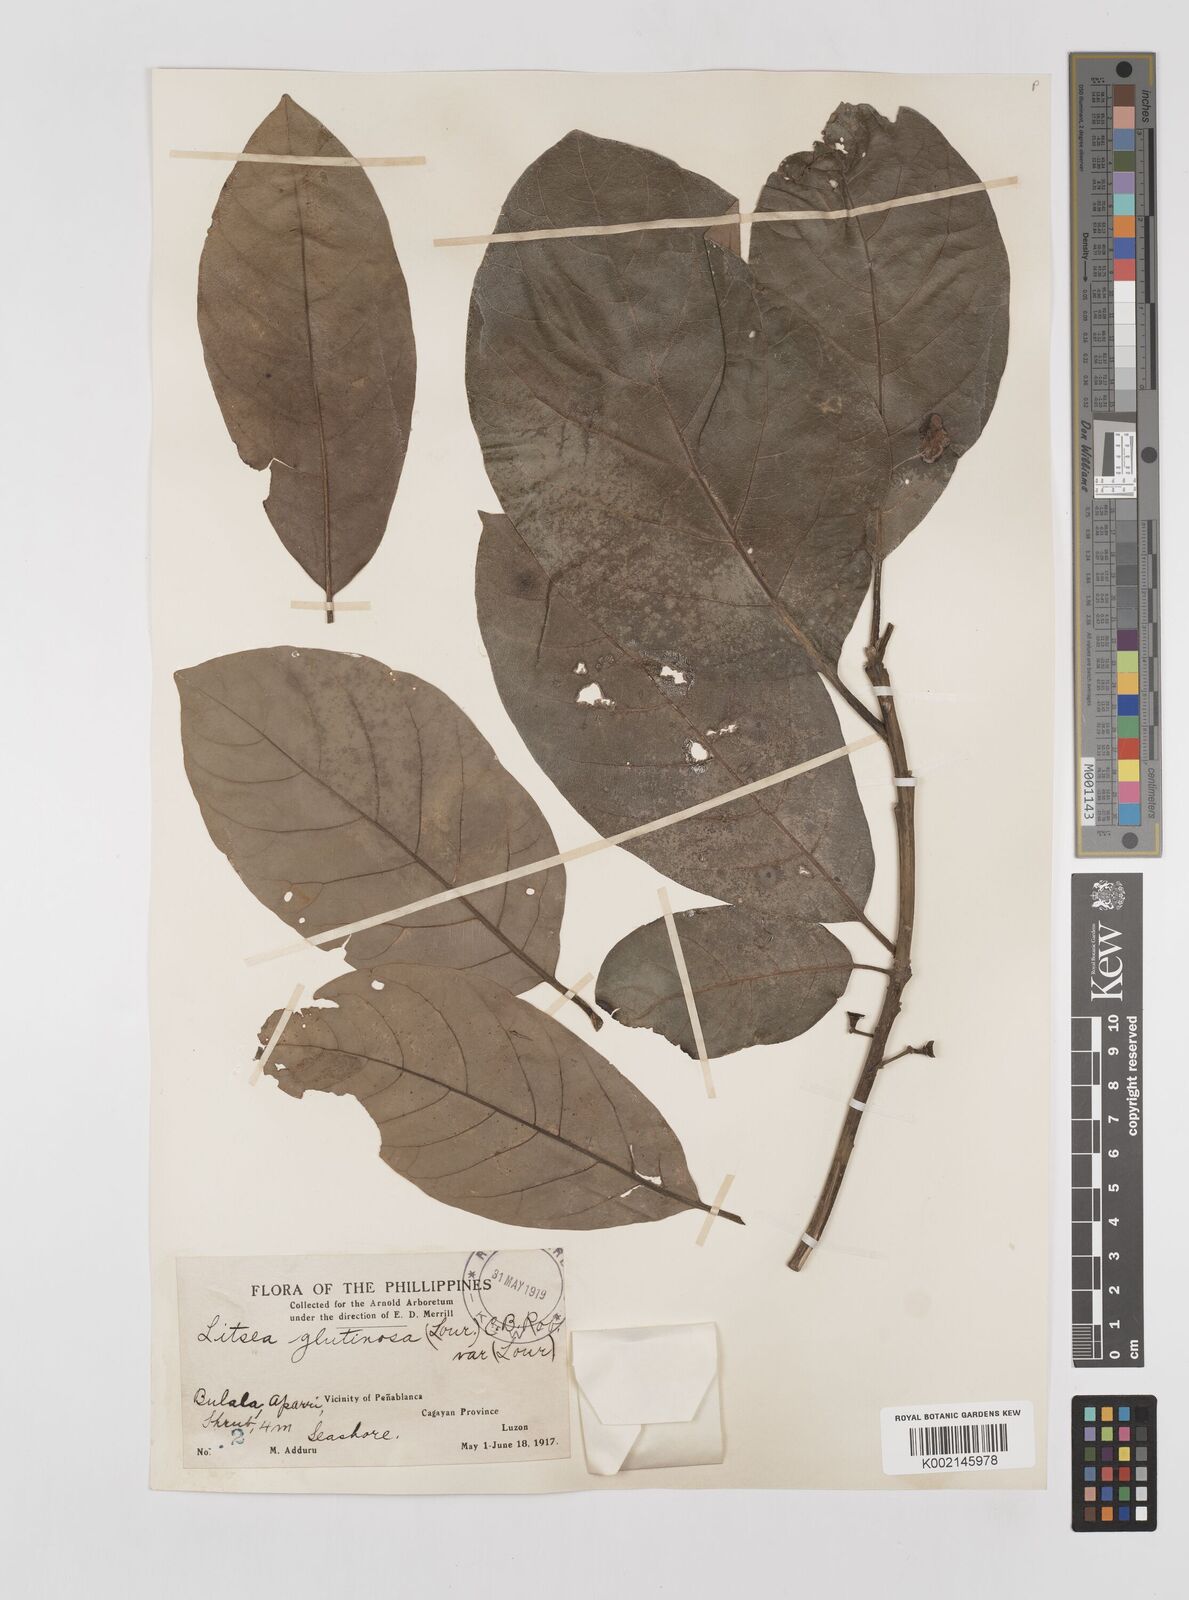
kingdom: Plantae
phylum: Tracheophyta
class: Magnoliopsida
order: Laurales
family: Lauraceae
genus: Litsea
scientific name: Litsea glutinosa
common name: Indian-laurel
